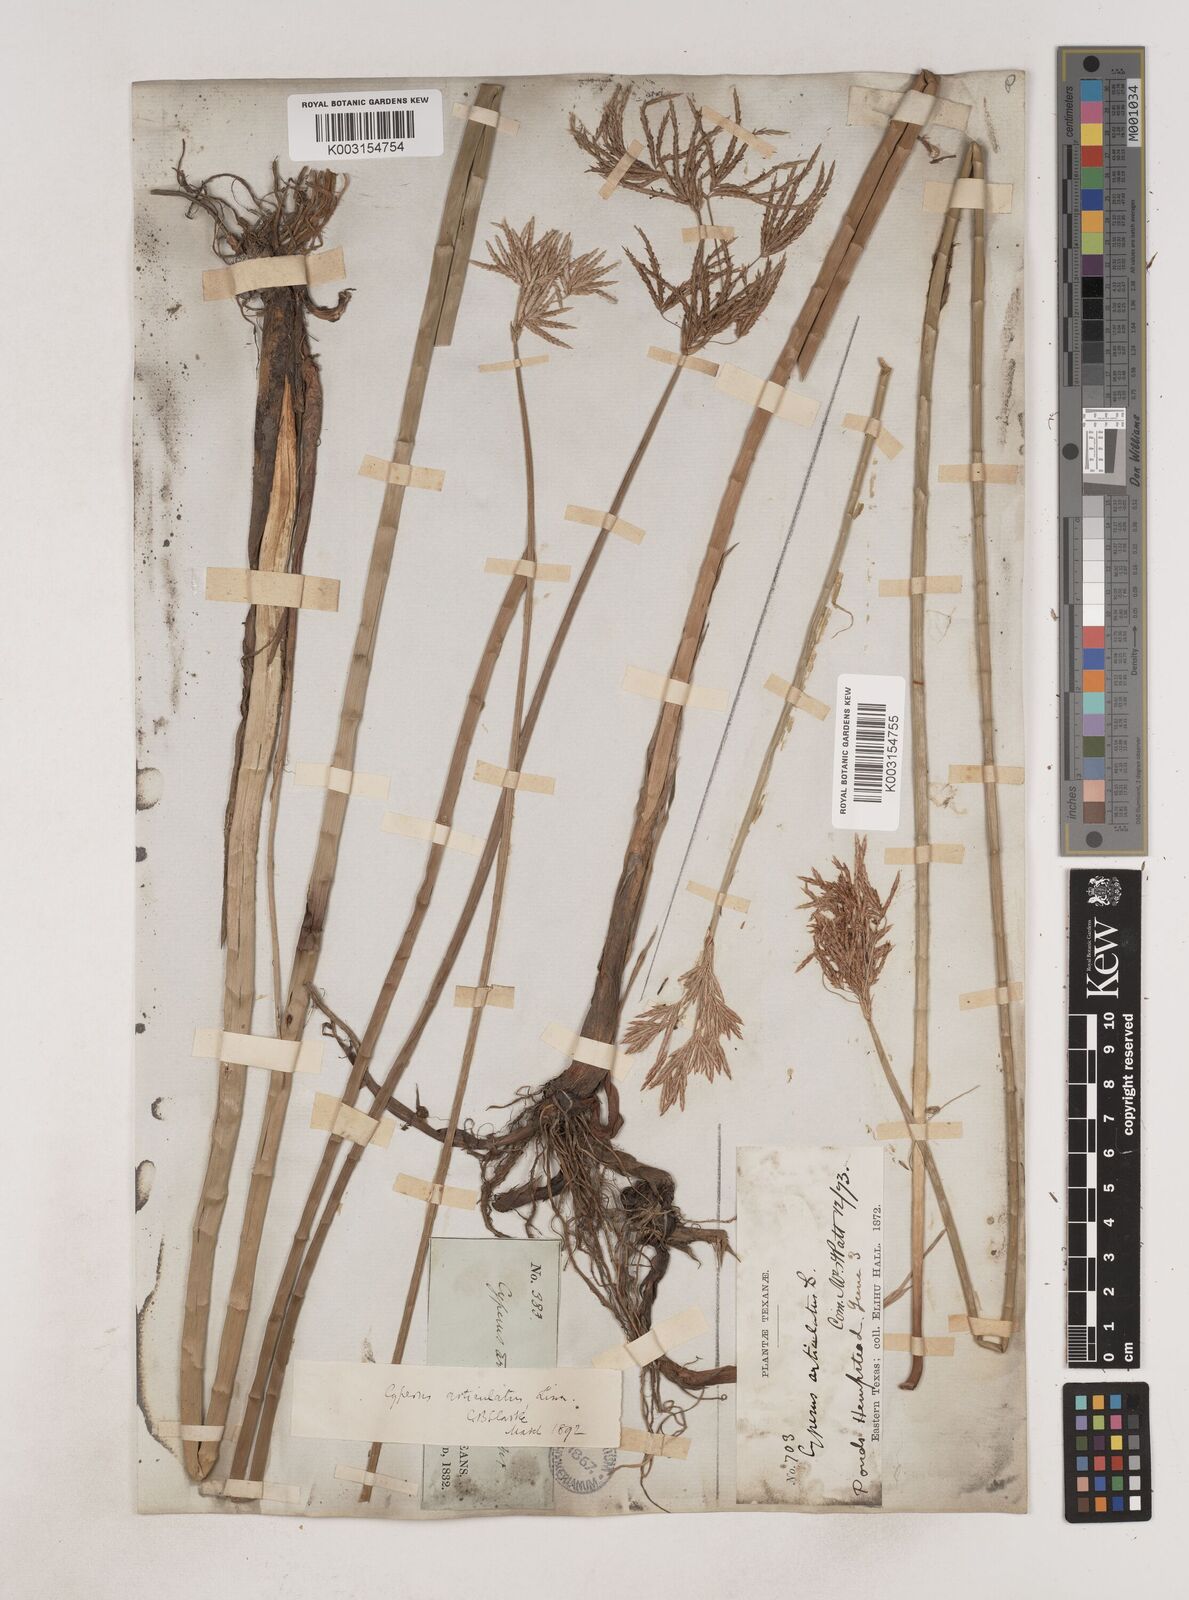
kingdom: Plantae
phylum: Tracheophyta
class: Liliopsida
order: Poales
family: Cyperaceae
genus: Cyperus
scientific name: Cyperus articulatus
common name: Jointed flatsedge
